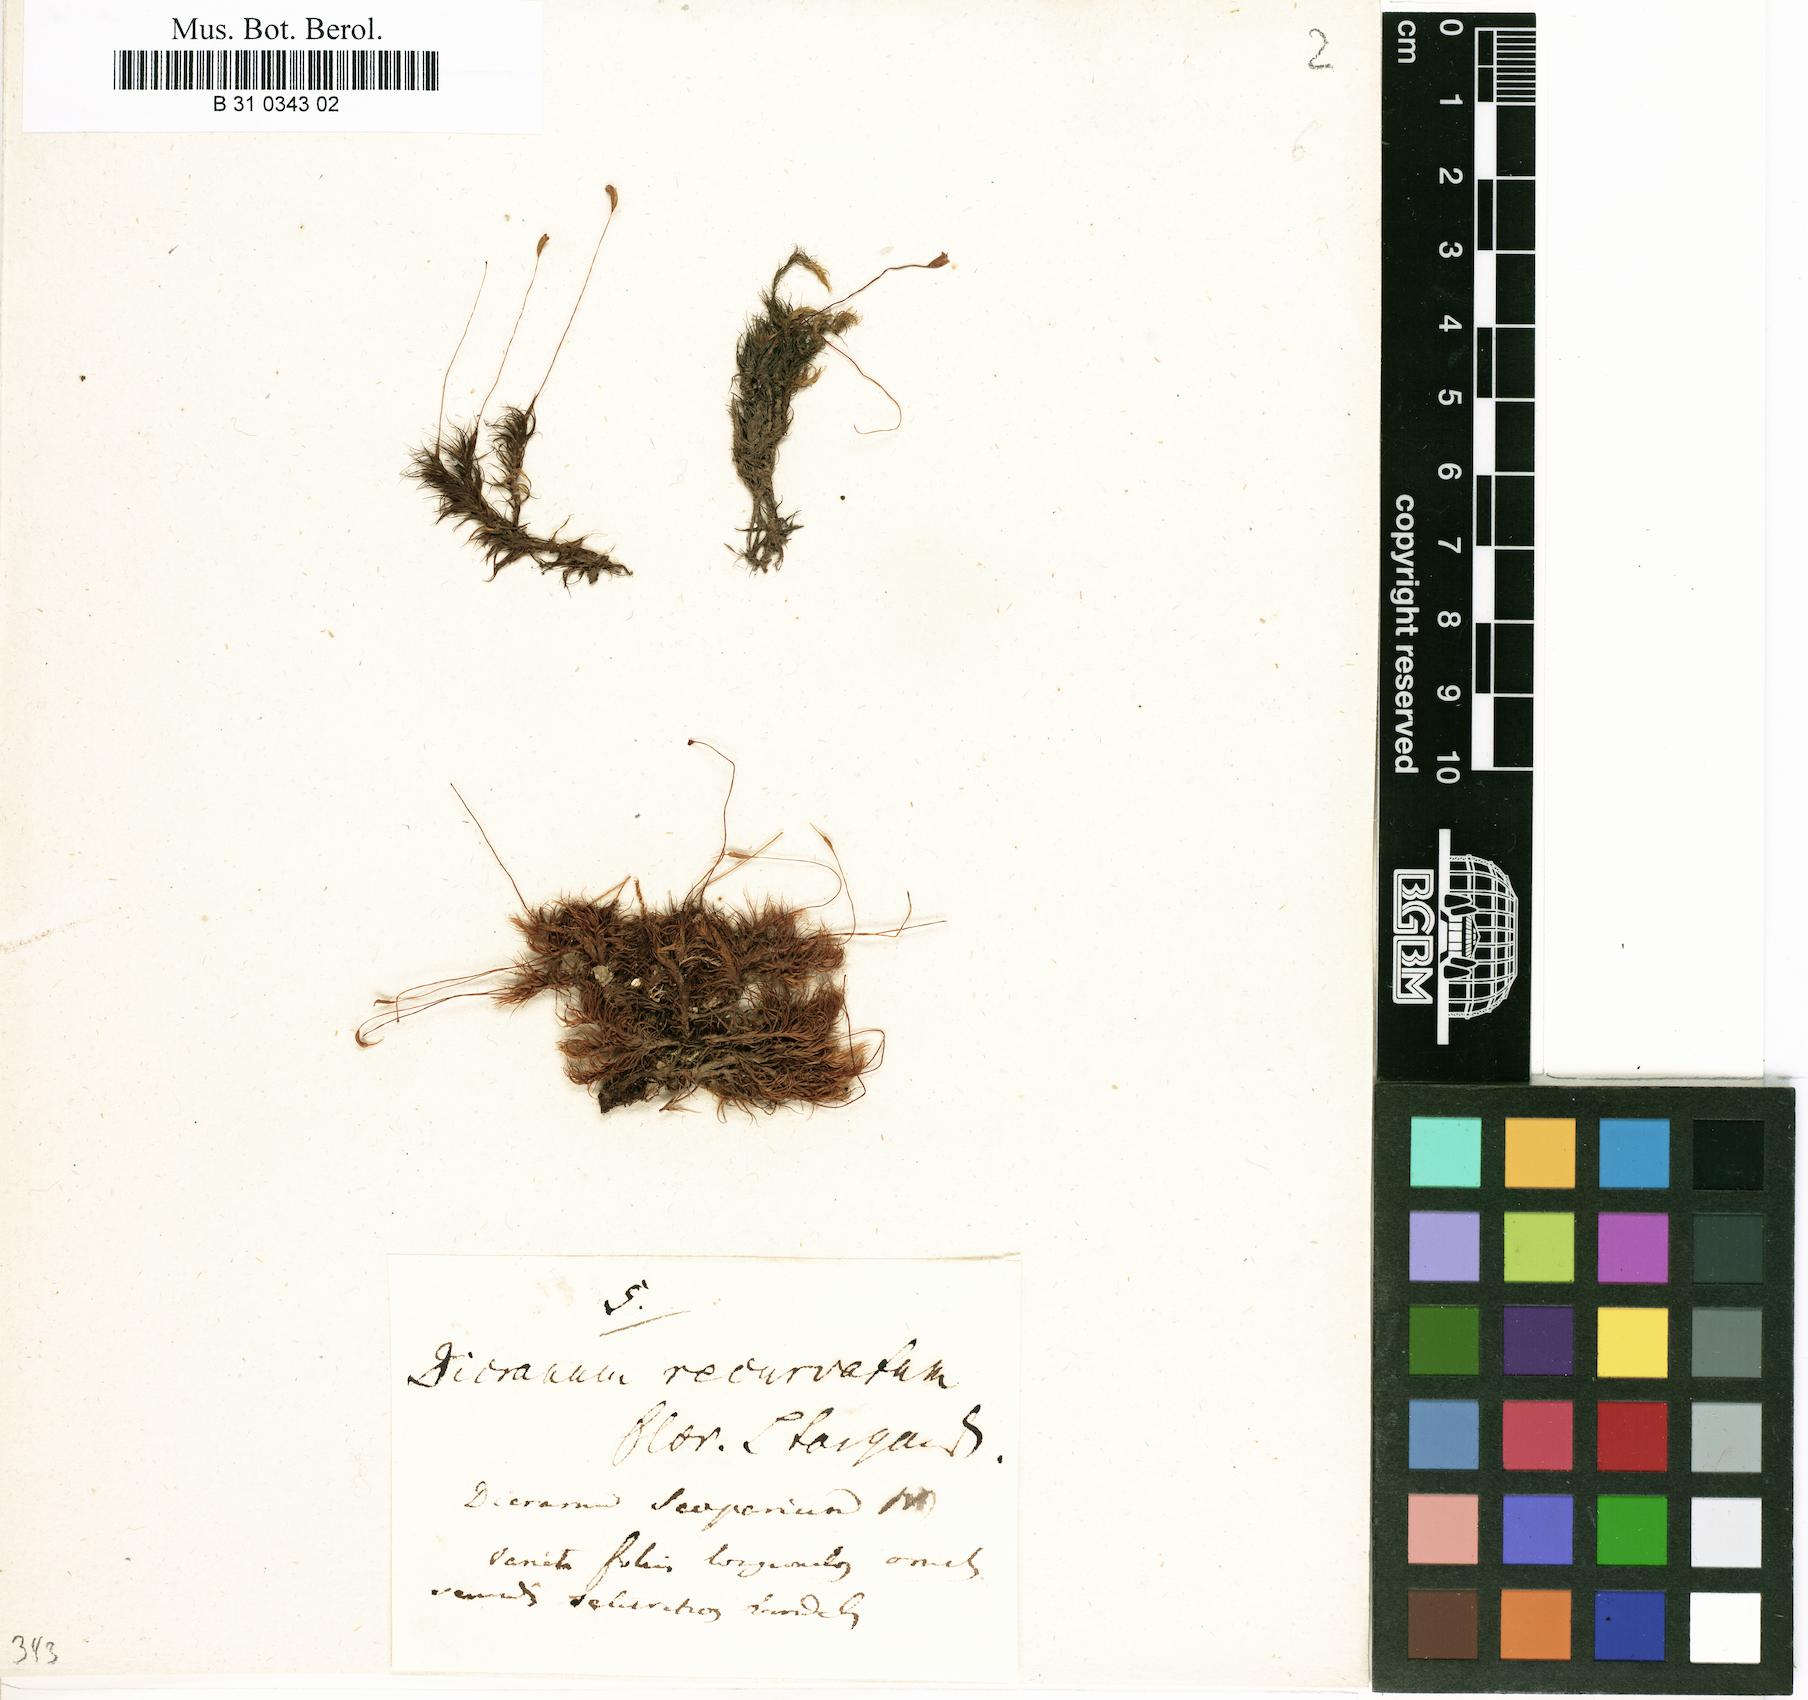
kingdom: Plantae
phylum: Bryophyta
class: Bryopsida
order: Dicranales
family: Dicranaceae
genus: Dicranum
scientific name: Dicranum scoparium
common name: Broom fork-moss
